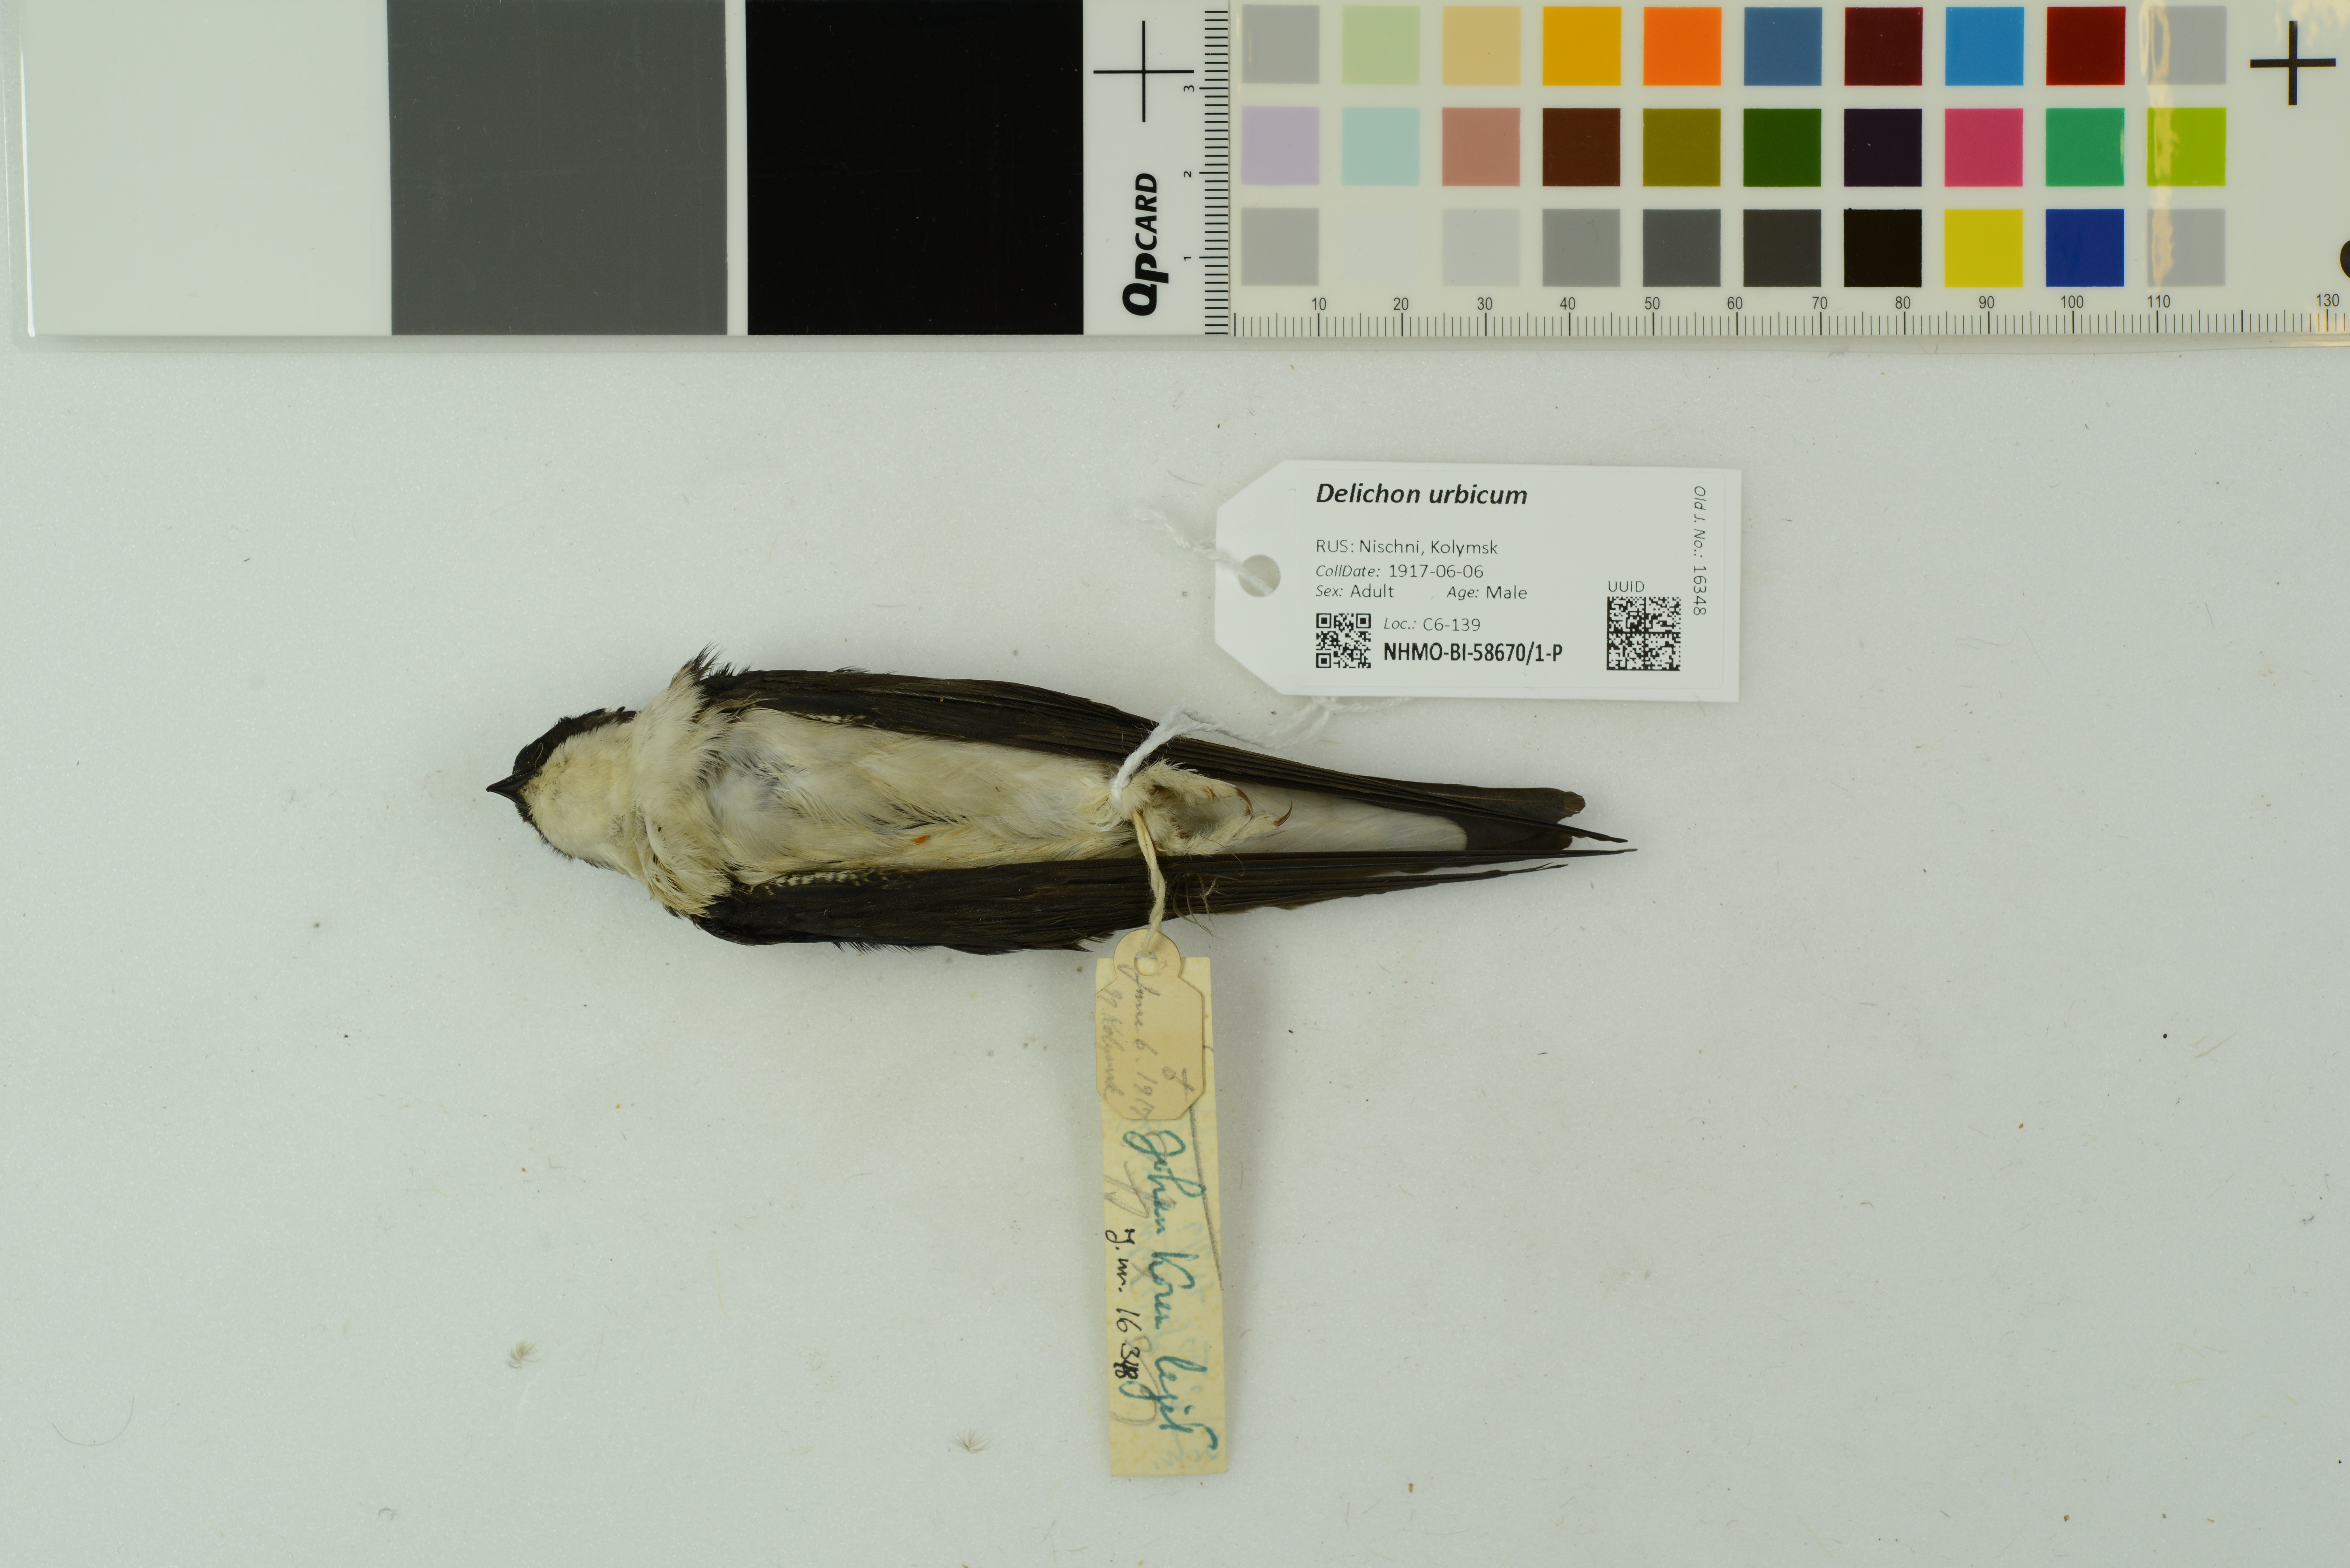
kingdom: Animalia
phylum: Chordata
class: Aves
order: Passeriformes
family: Hirundinidae
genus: Delichon
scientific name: Delichon urbicum
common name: Common house martin
